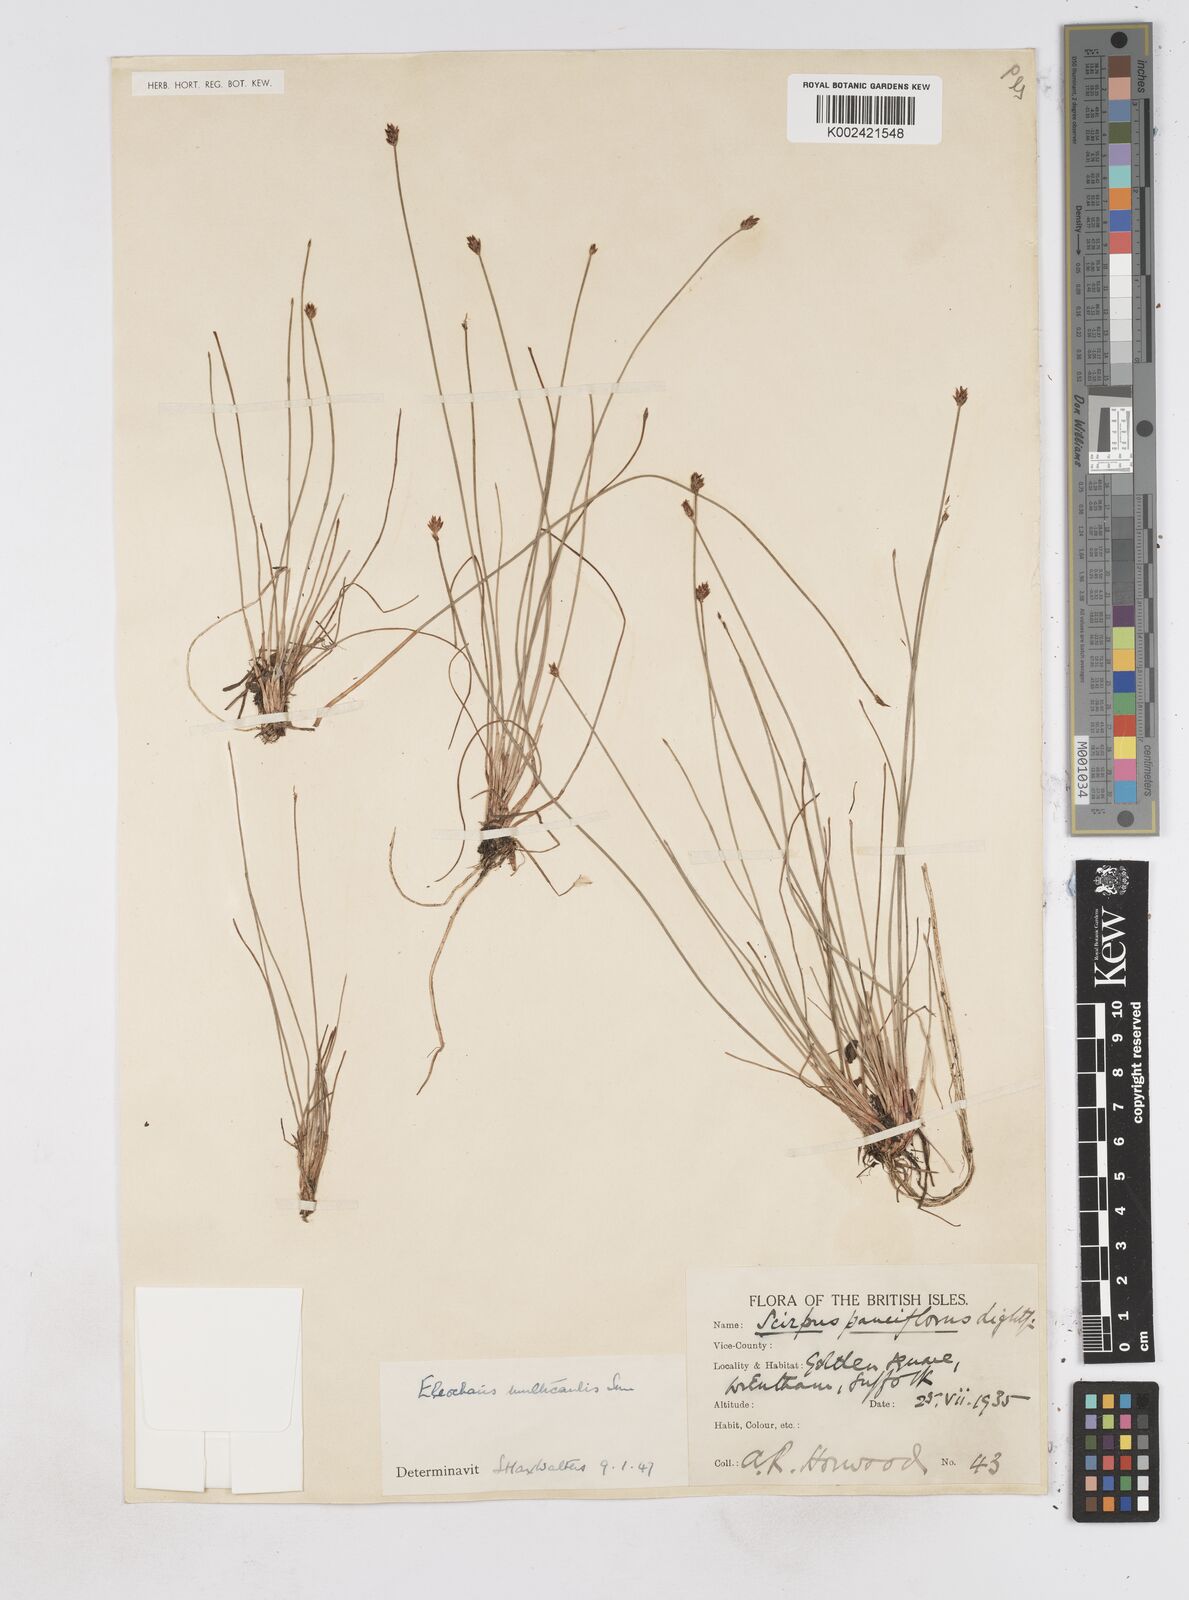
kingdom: Plantae
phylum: Tracheophyta
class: Liliopsida
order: Poales
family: Cyperaceae
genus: Eleocharis
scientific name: Eleocharis multicaulis
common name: Many-stalked spike-rush
